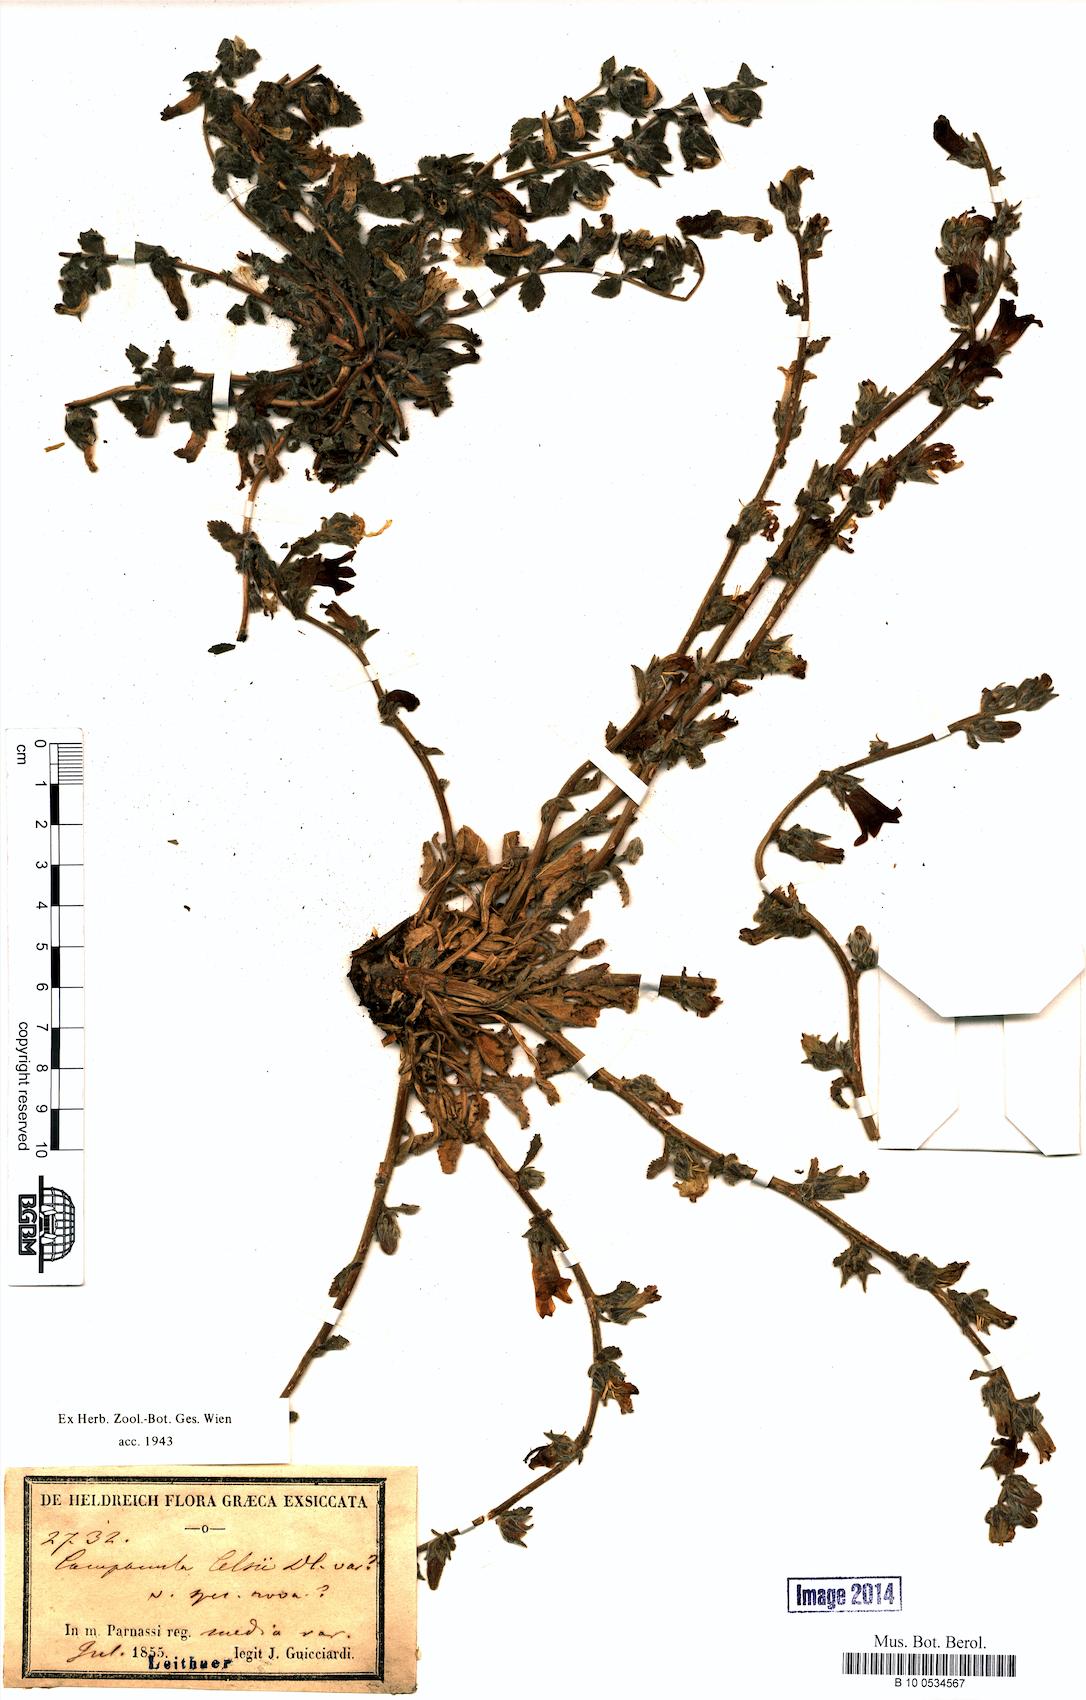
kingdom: Plantae
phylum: Tracheophyta
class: Magnoliopsida
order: Asterales
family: Campanulaceae
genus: Campanula
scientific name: Campanula celsii
